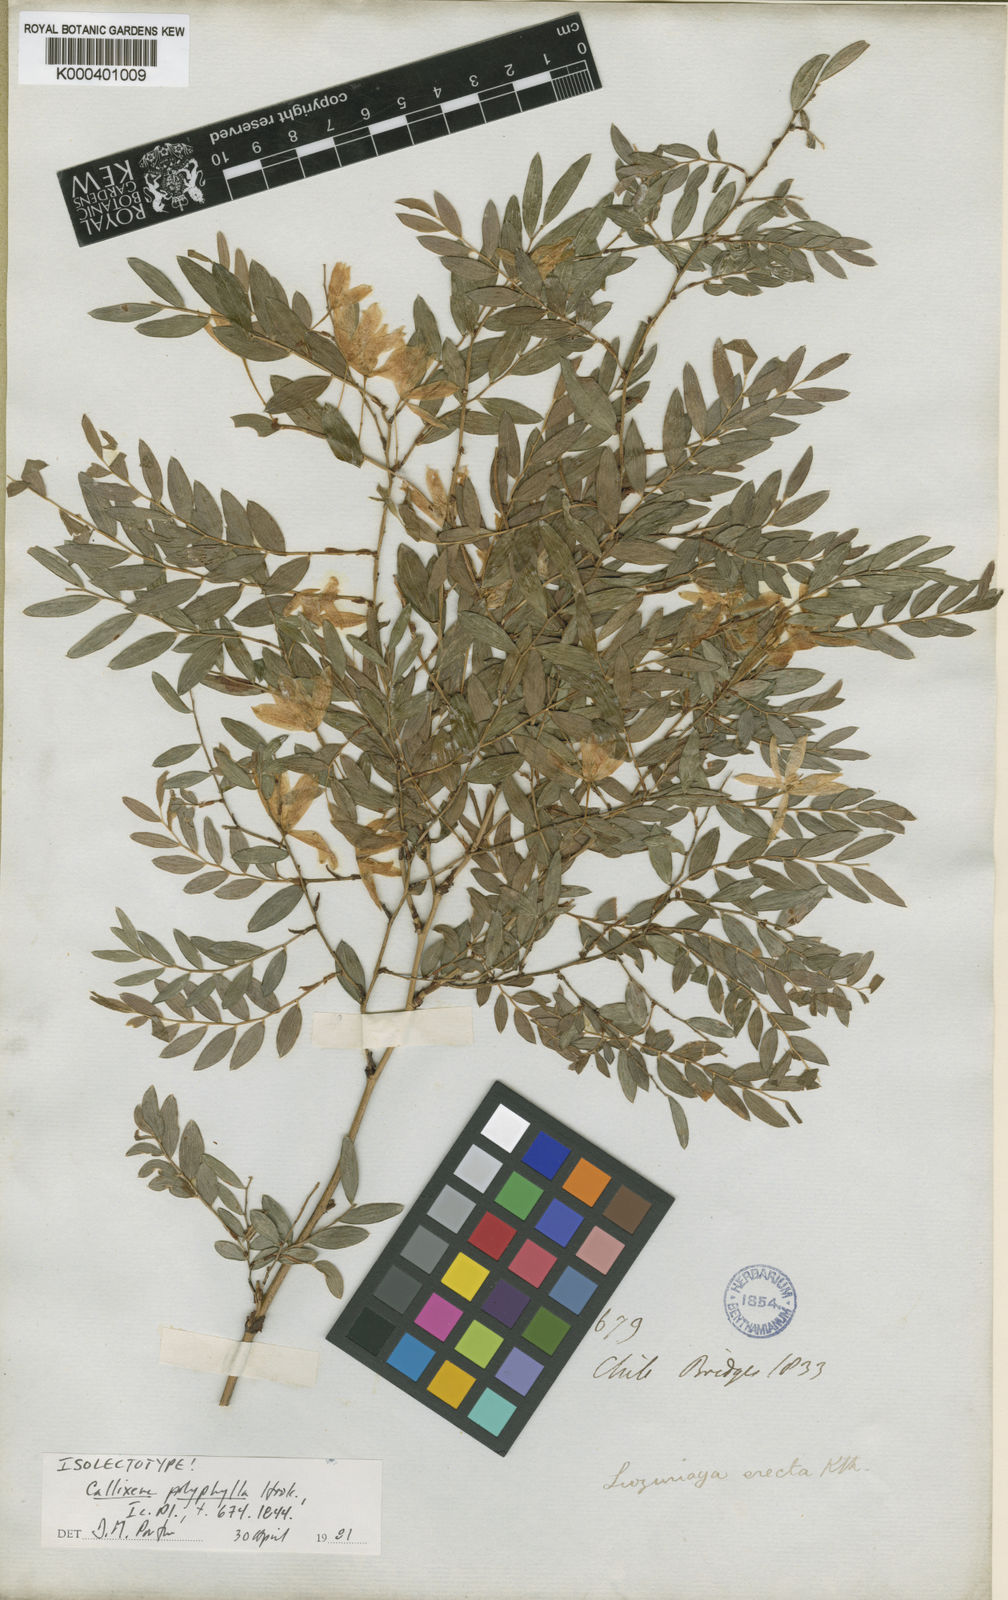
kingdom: Plantae
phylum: Tracheophyta
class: Liliopsida
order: Liliales
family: Alstroemeriaceae
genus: Luzuriaga
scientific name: Luzuriaga polyphylla
